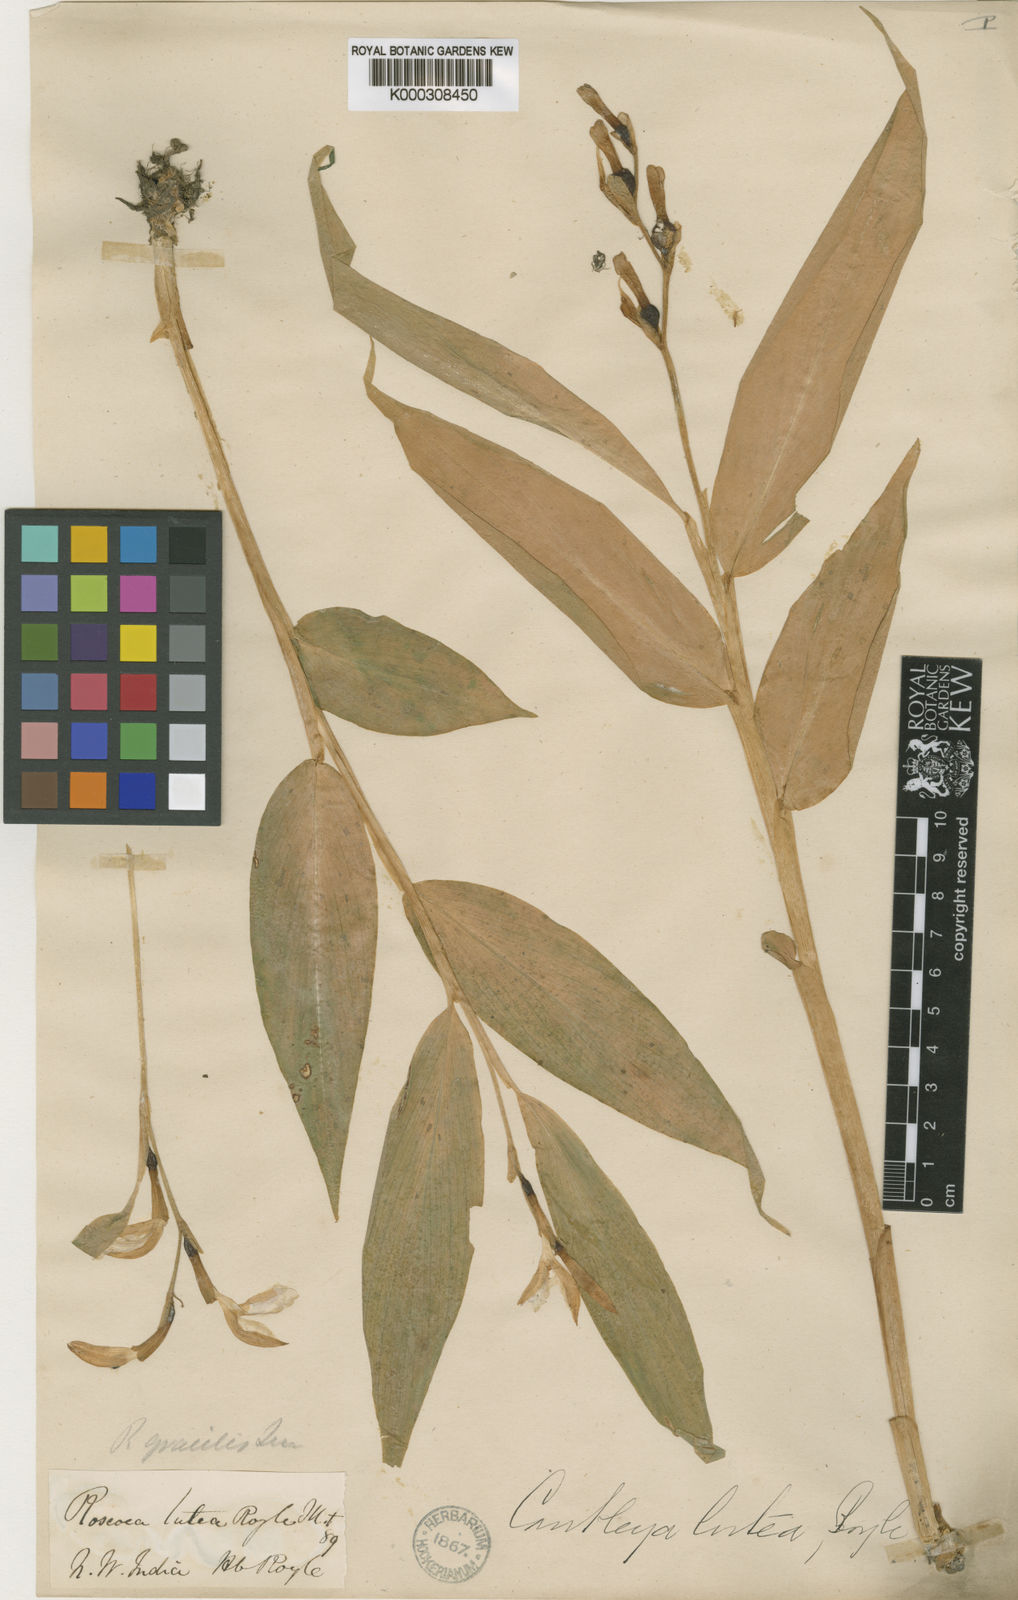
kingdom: Plantae
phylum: Tracheophyta
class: Liliopsida
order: Zingiberales
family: Zingiberaceae
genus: Cautleya
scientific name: Cautleya gracilis
